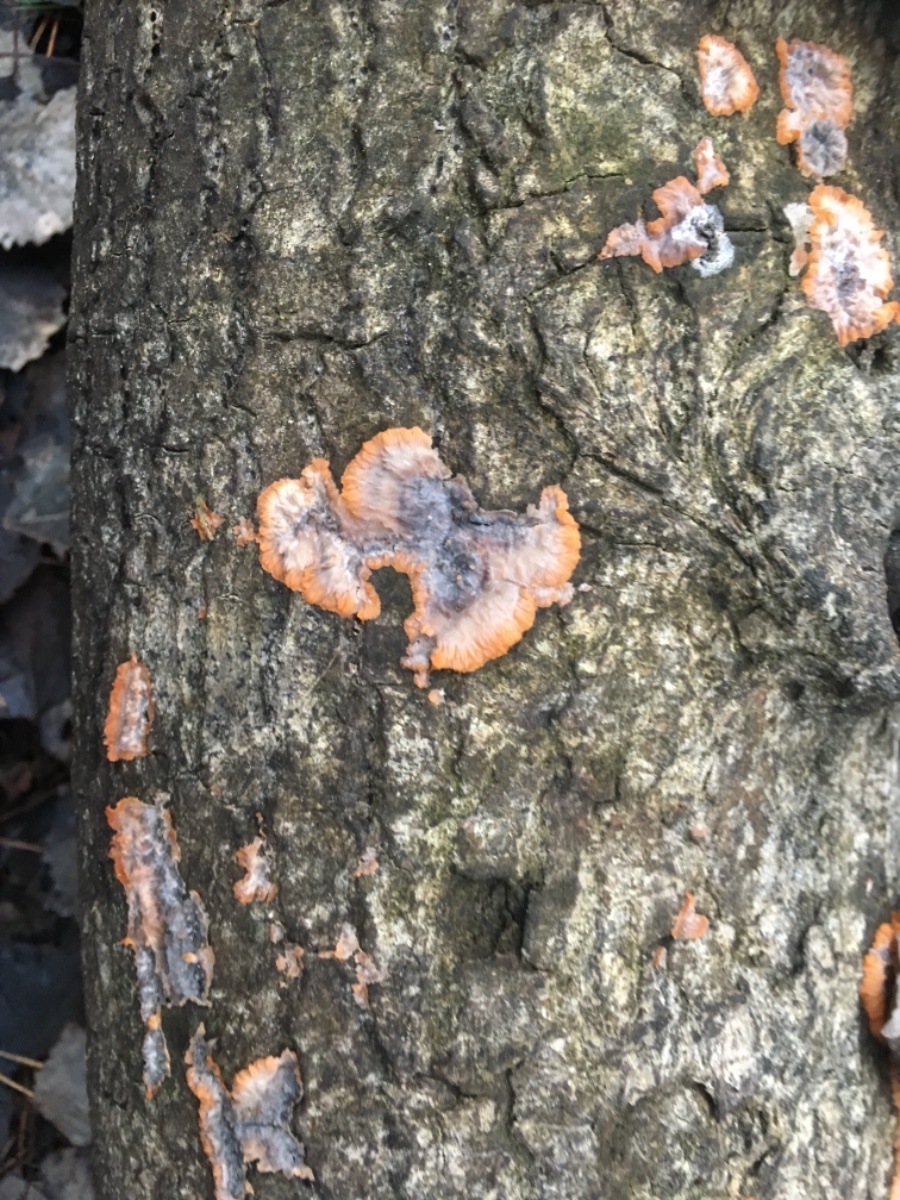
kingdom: Fungi
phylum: Basidiomycota
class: Agaricomycetes
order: Polyporales
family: Meruliaceae
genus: Phlebia
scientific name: Phlebia radiata
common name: stråle-åresvamp
